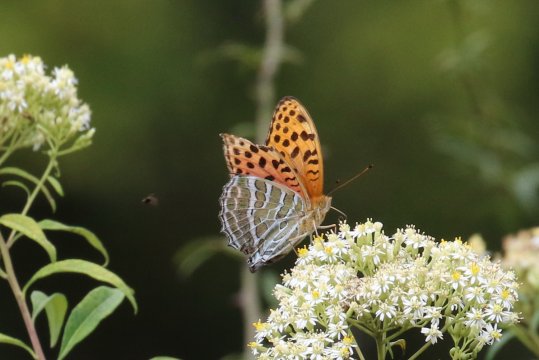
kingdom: Animalia
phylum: Arthropoda
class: Insecta
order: Lepidoptera
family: Nymphalidae
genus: Childrena
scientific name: Childrena childreni
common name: Large Silverstripe
